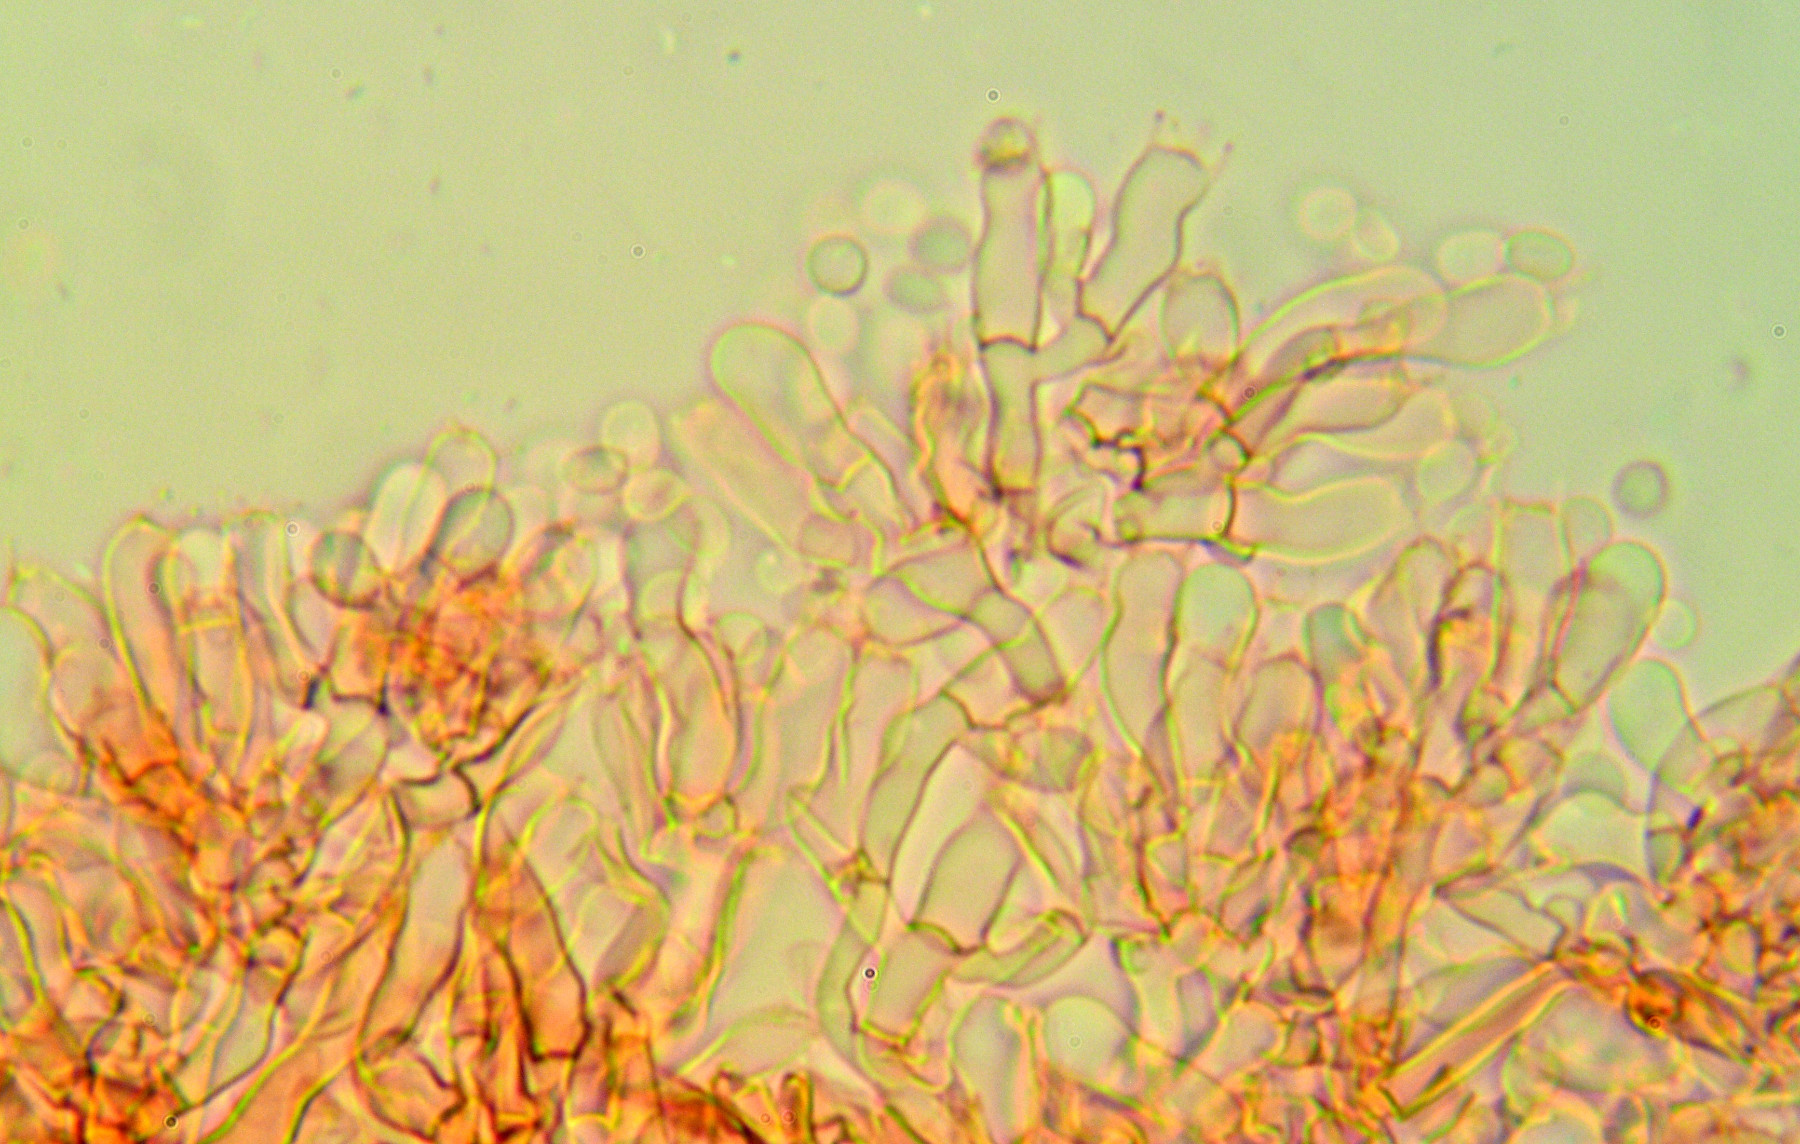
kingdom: Fungi
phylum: Basidiomycota
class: Agaricomycetes
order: Hymenochaetales
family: Schizoporaceae
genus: Fibrodontia
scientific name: Fibrodontia gossypina
